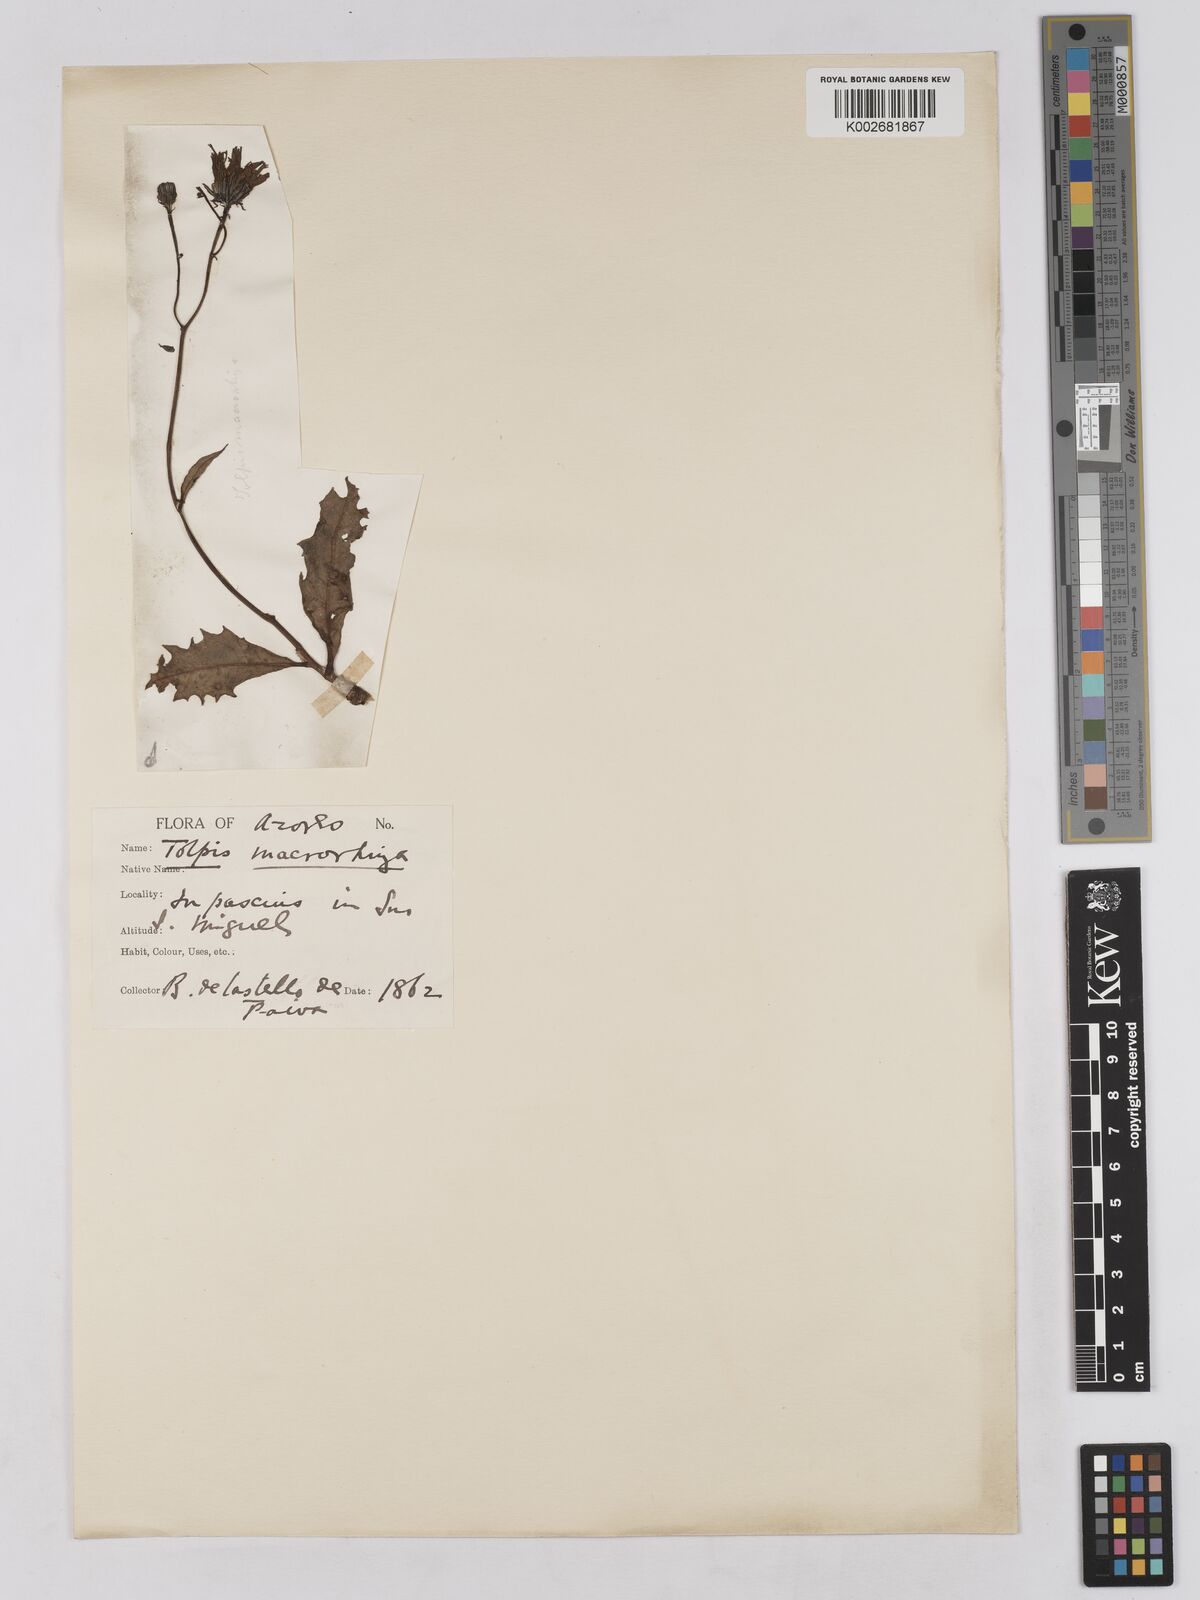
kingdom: Plantae
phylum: Tracheophyta
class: Magnoliopsida
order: Asterales
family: Asteraceae
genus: Tolpis
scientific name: Tolpis nobilis
